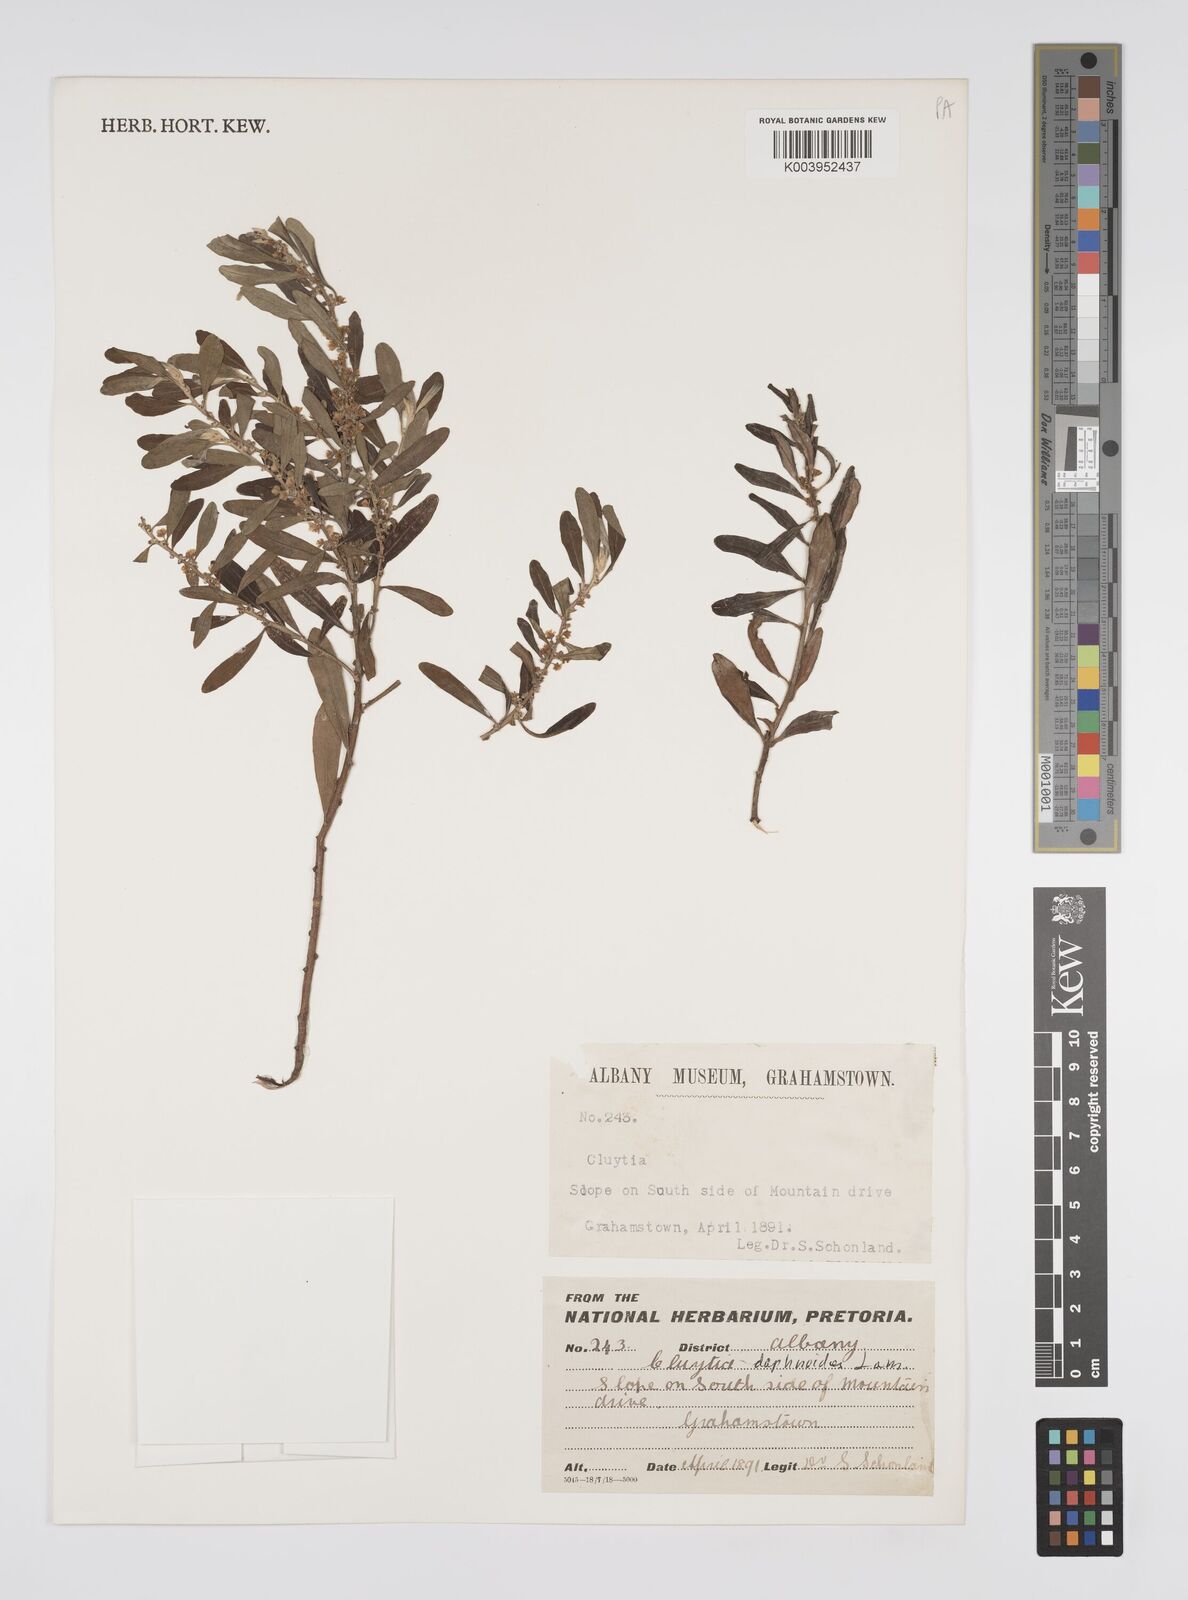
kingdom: Plantae
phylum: Tracheophyta
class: Magnoliopsida
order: Malpighiales
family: Peraceae
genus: Clutia
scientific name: Clutia daphnoides
